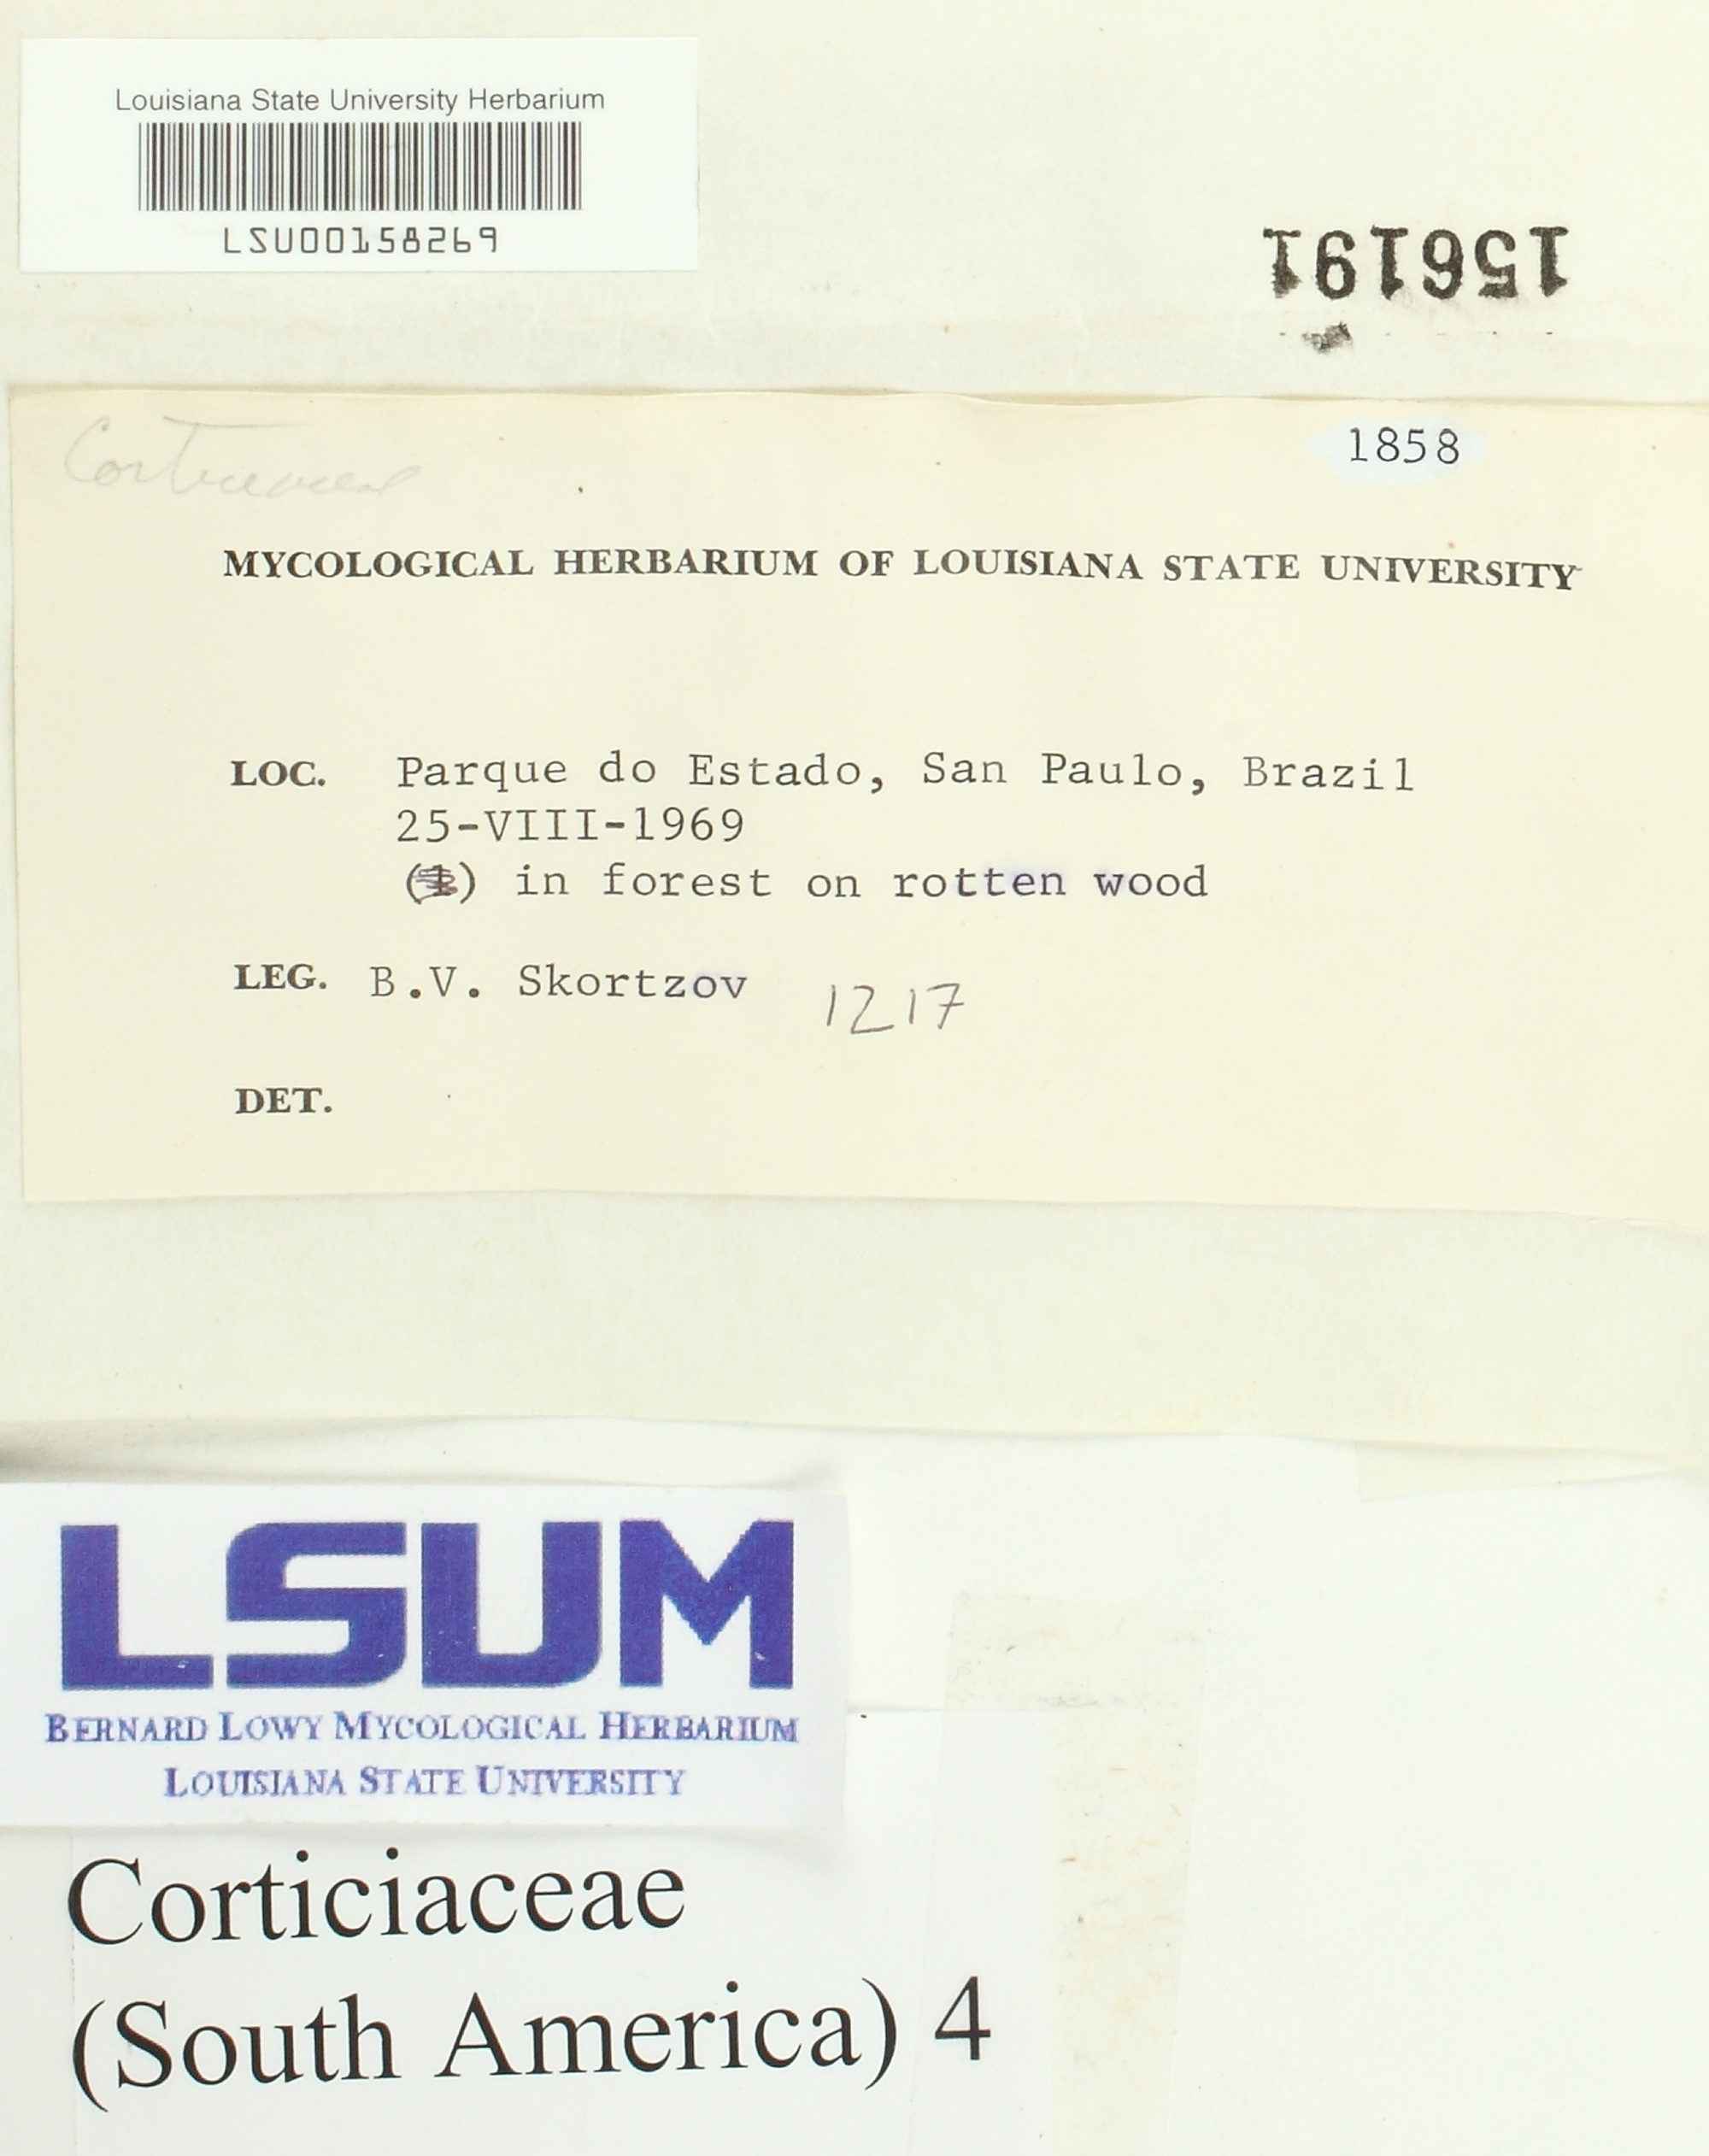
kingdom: Fungi
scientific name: Fungi
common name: Fungi
